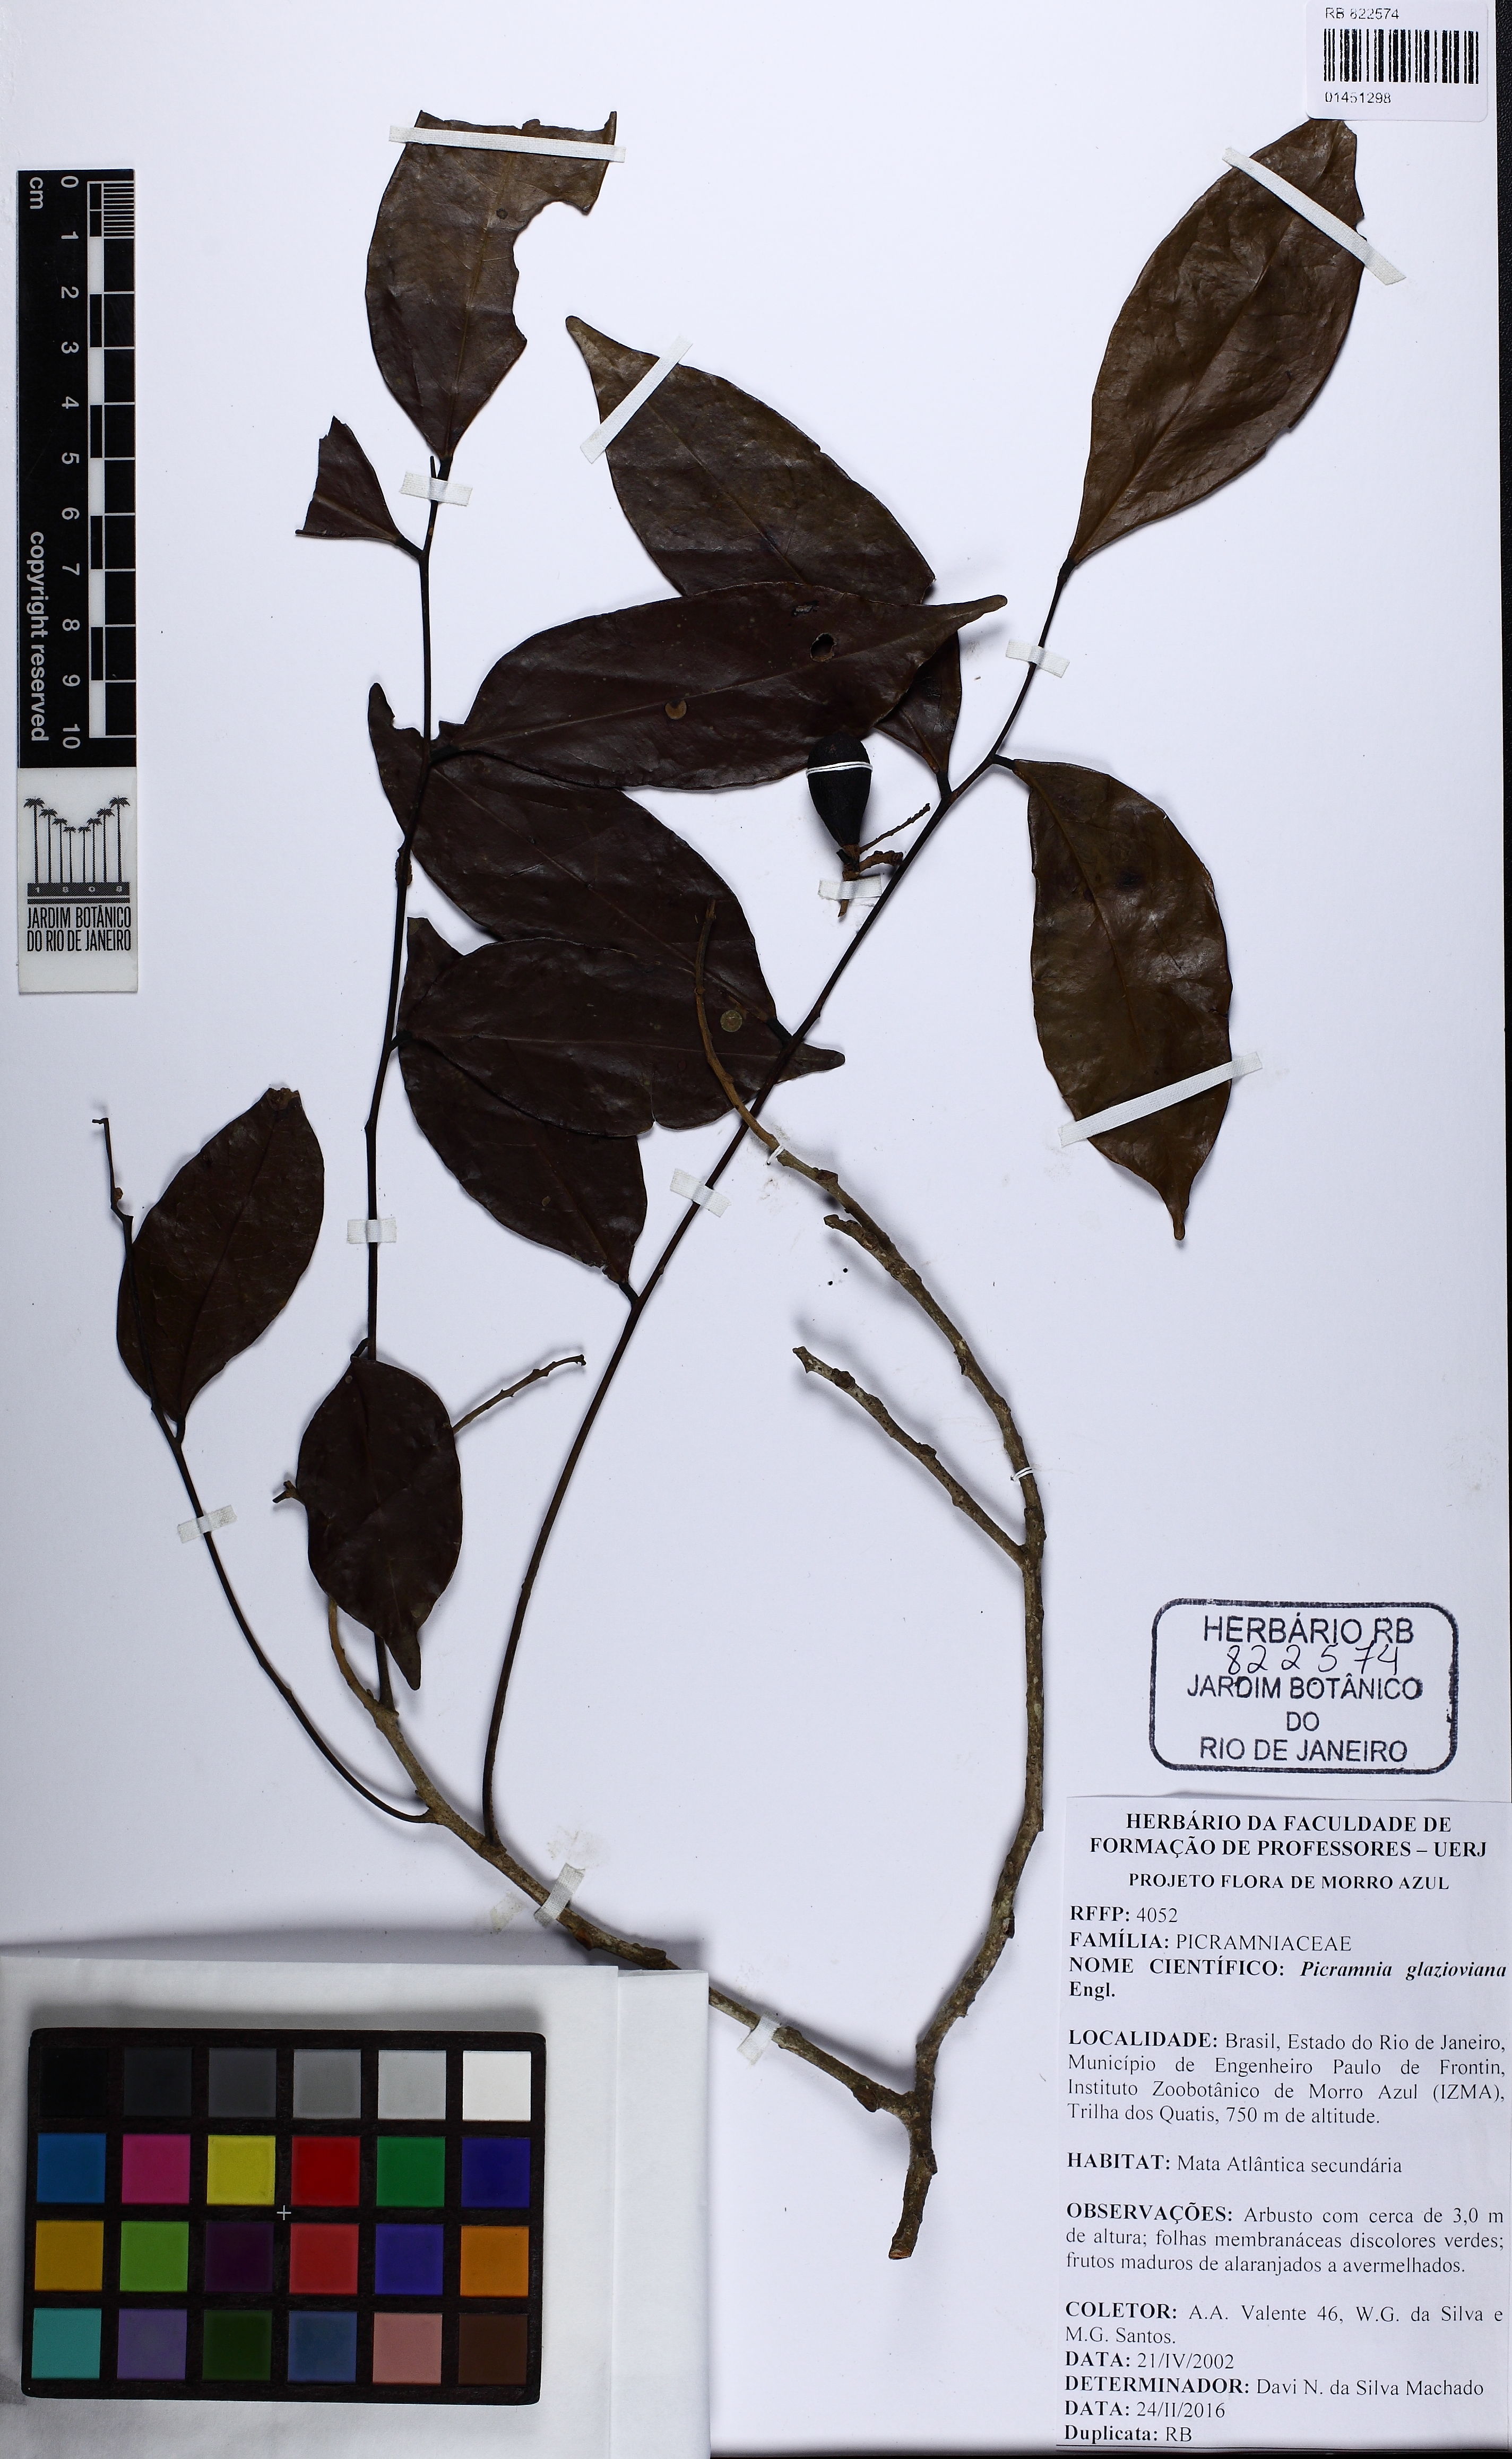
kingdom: Plantae
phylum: Tracheophyta
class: Magnoliopsida
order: Picramniales
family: Picramniaceae
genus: Picramnia
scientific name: Picramnia glazioviana
